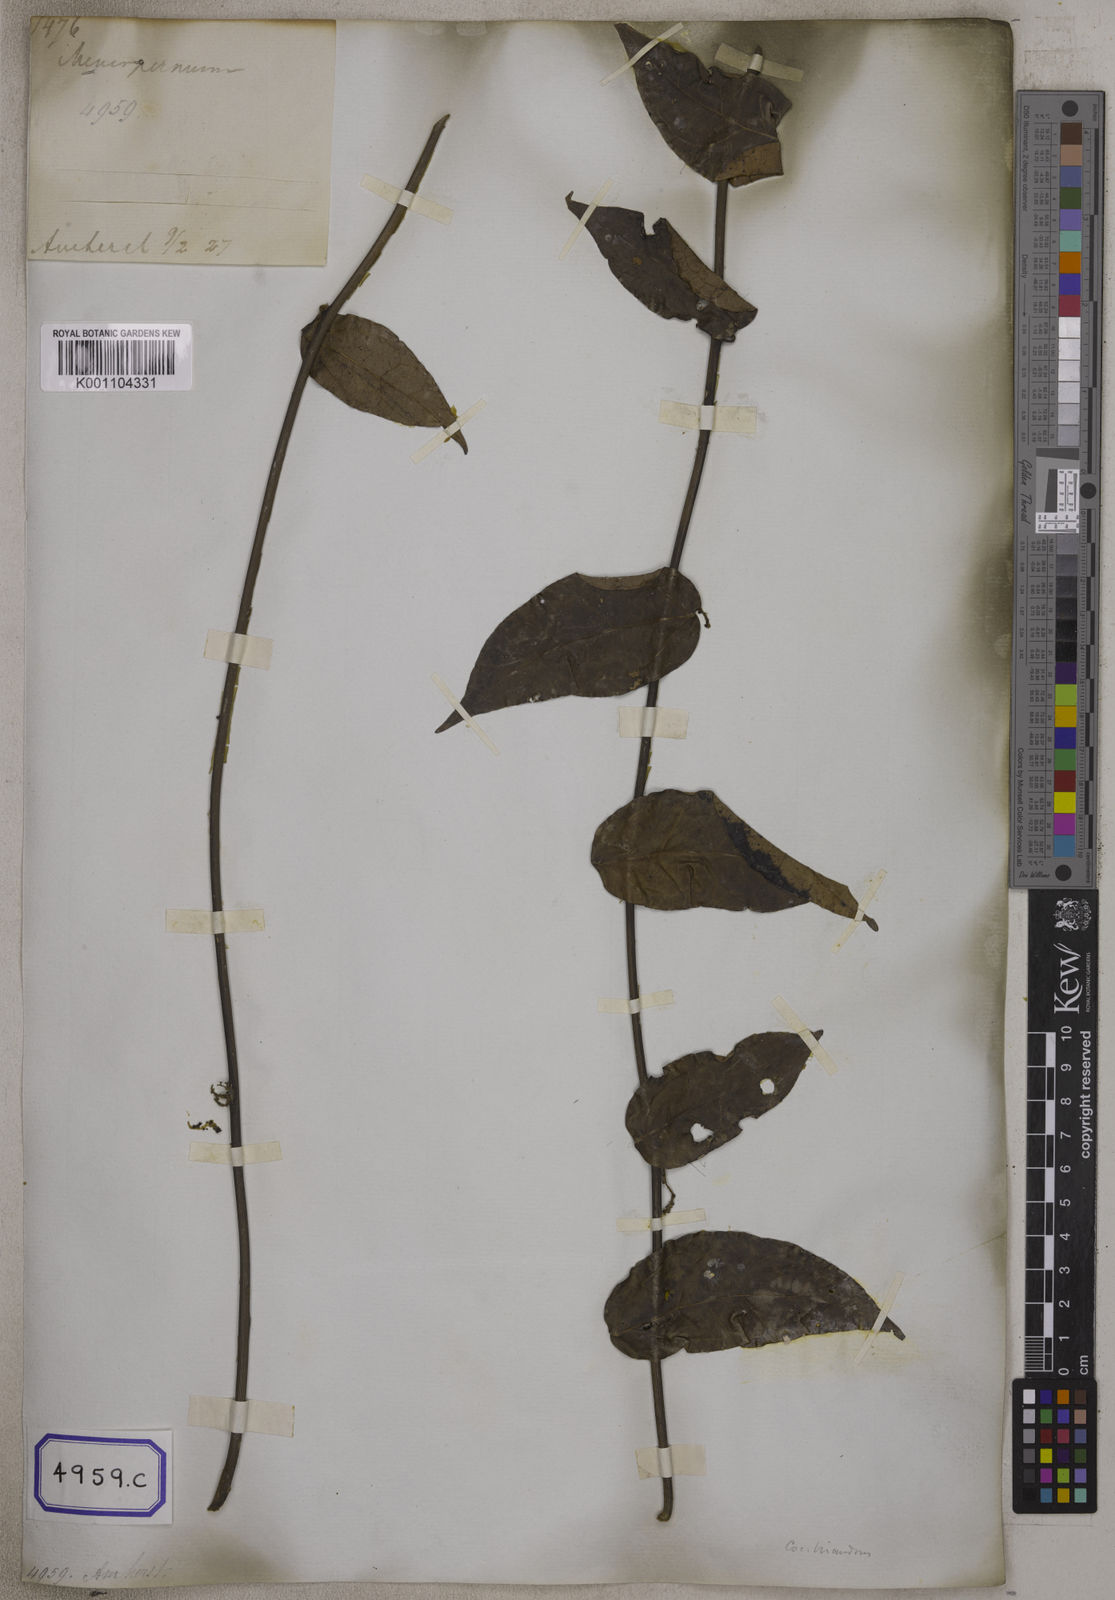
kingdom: Plantae
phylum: Tracheophyta
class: Magnoliopsida
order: Ranunculales
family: Menispermaceae
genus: Pachygone
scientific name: Pachygone ovata
